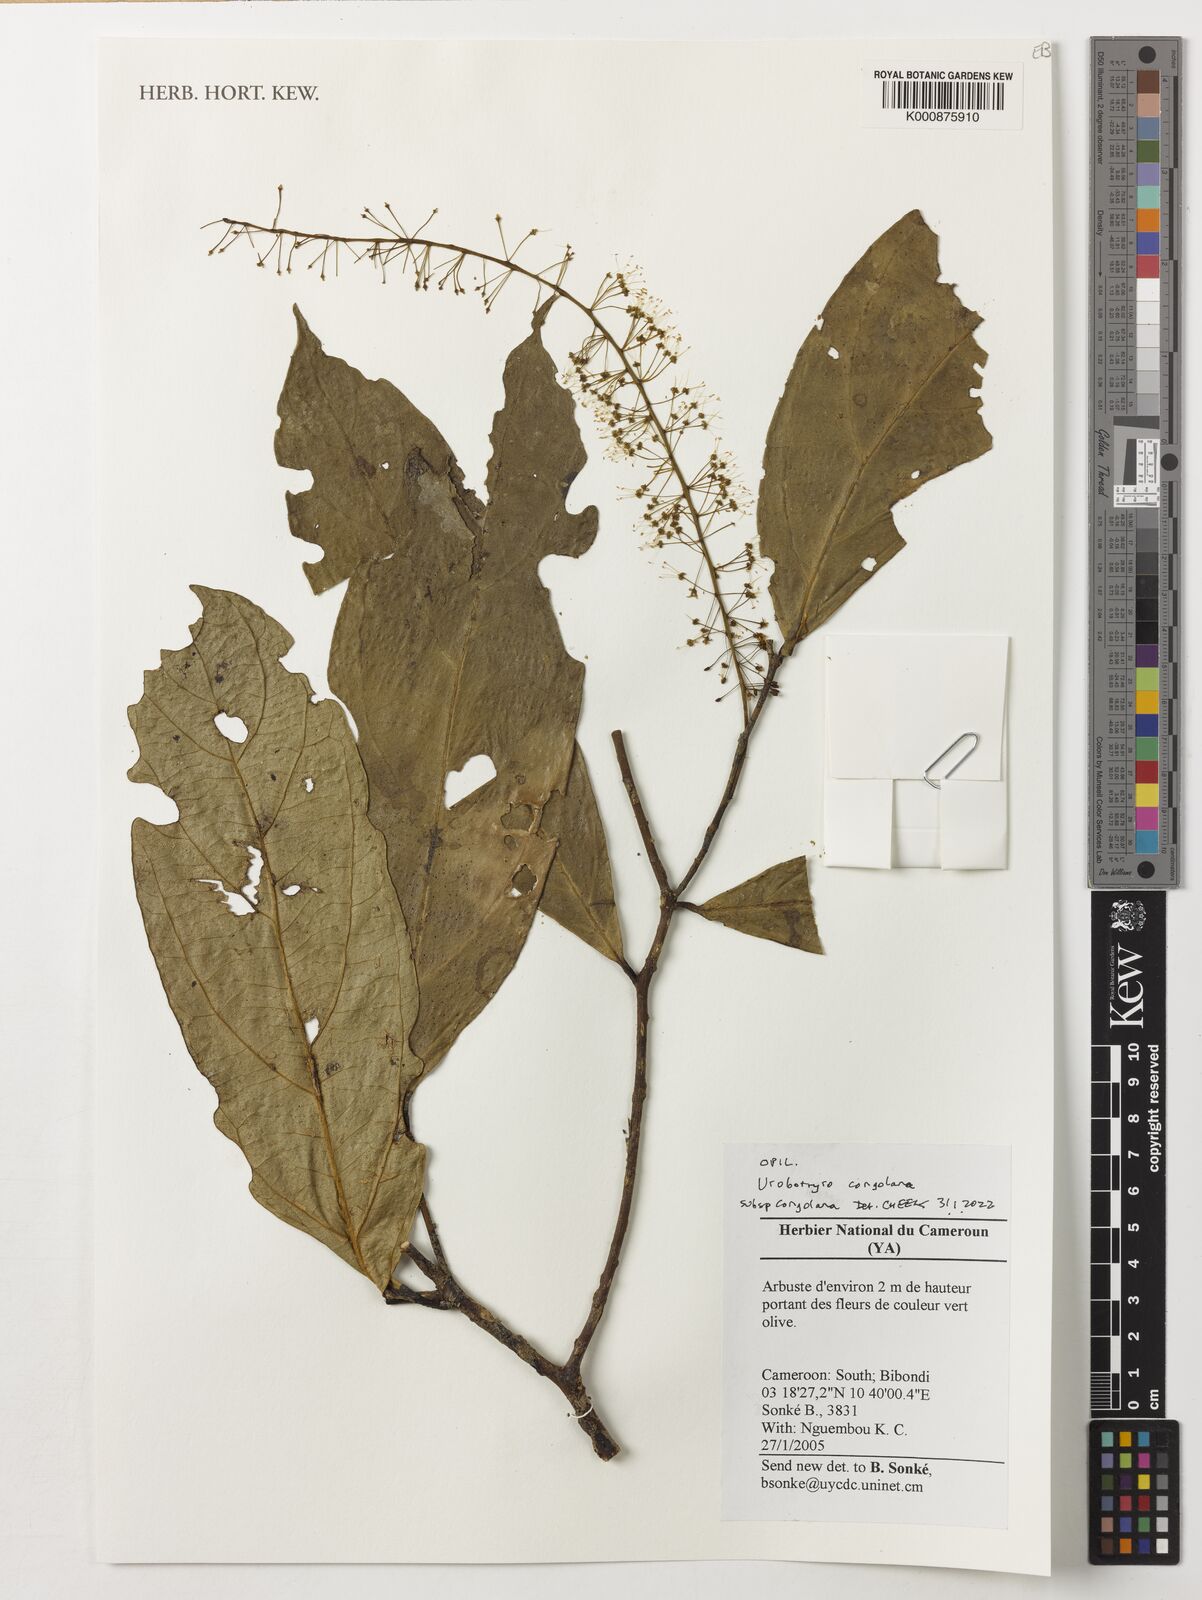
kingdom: Plantae
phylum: Tracheophyta
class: Magnoliopsida
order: Santalales
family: Opiliaceae
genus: Urobotrya
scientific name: Urobotrya congolana
